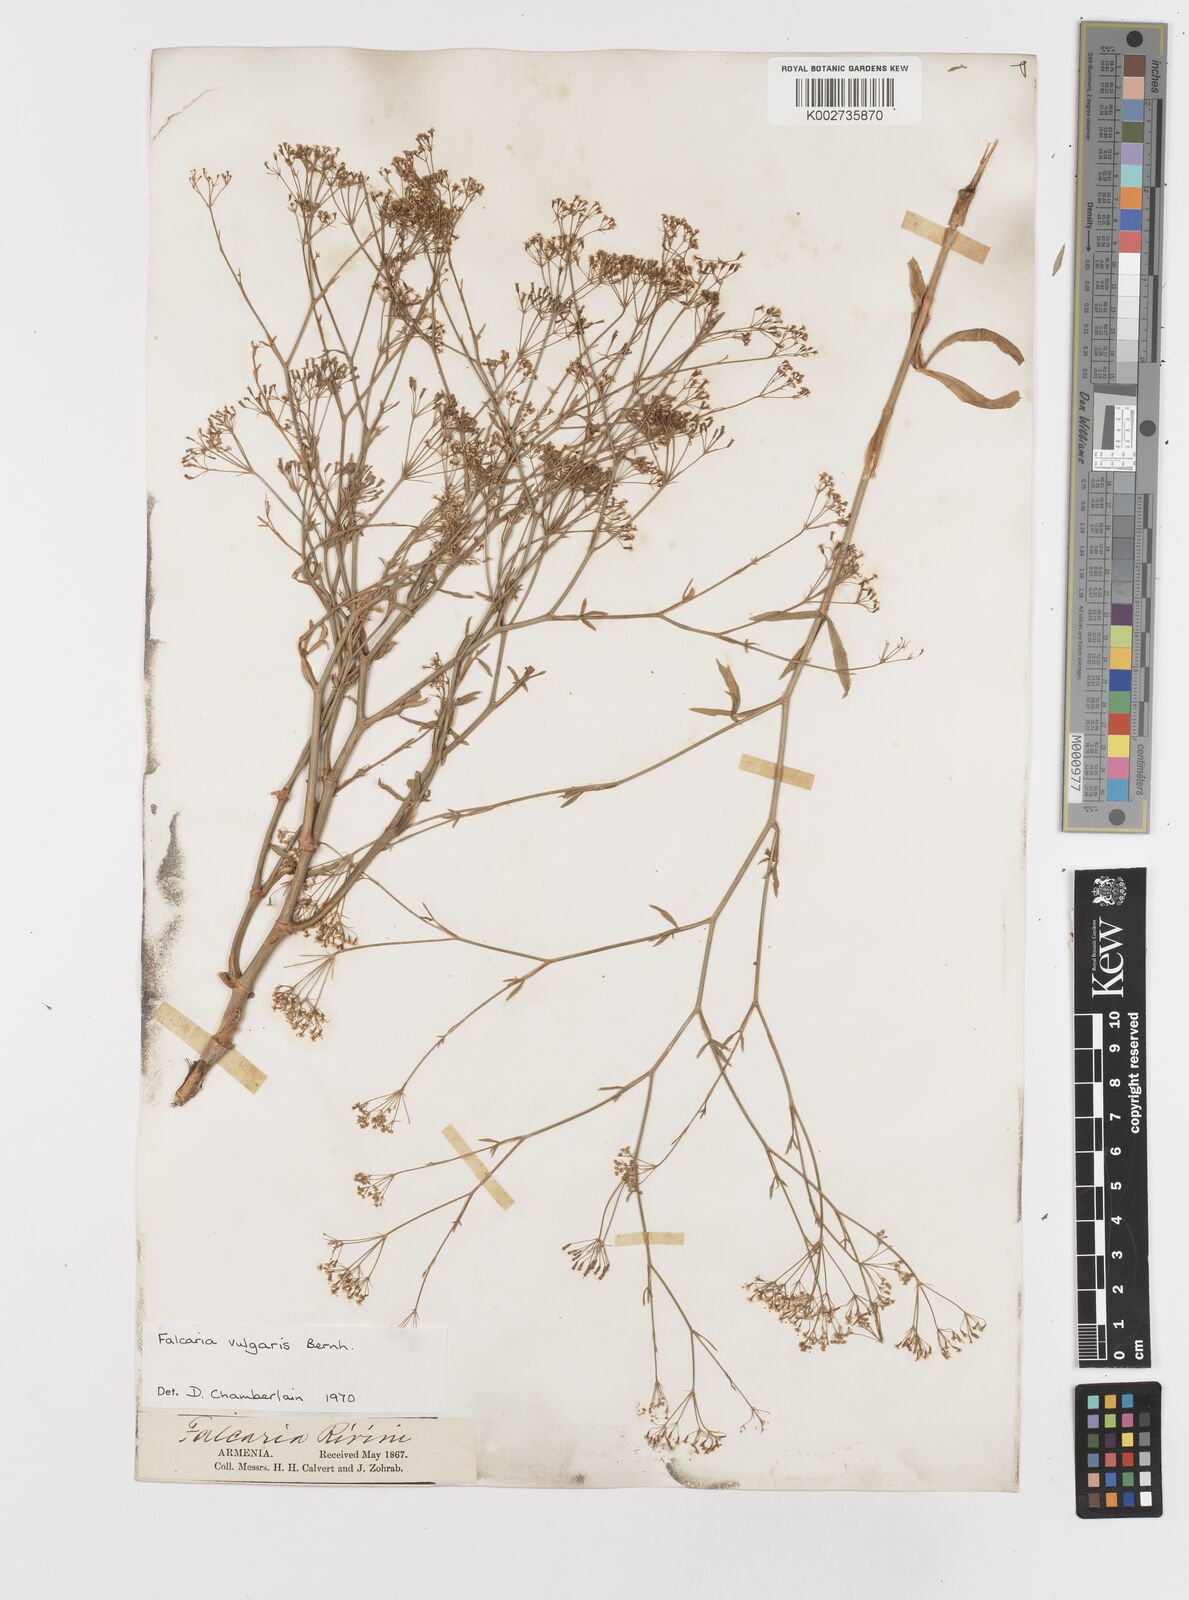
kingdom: Plantae
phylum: Tracheophyta
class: Magnoliopsida
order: Apiales
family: Apiaceae
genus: Falcaria
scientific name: Falcaria vulgaris
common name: Longleaf
